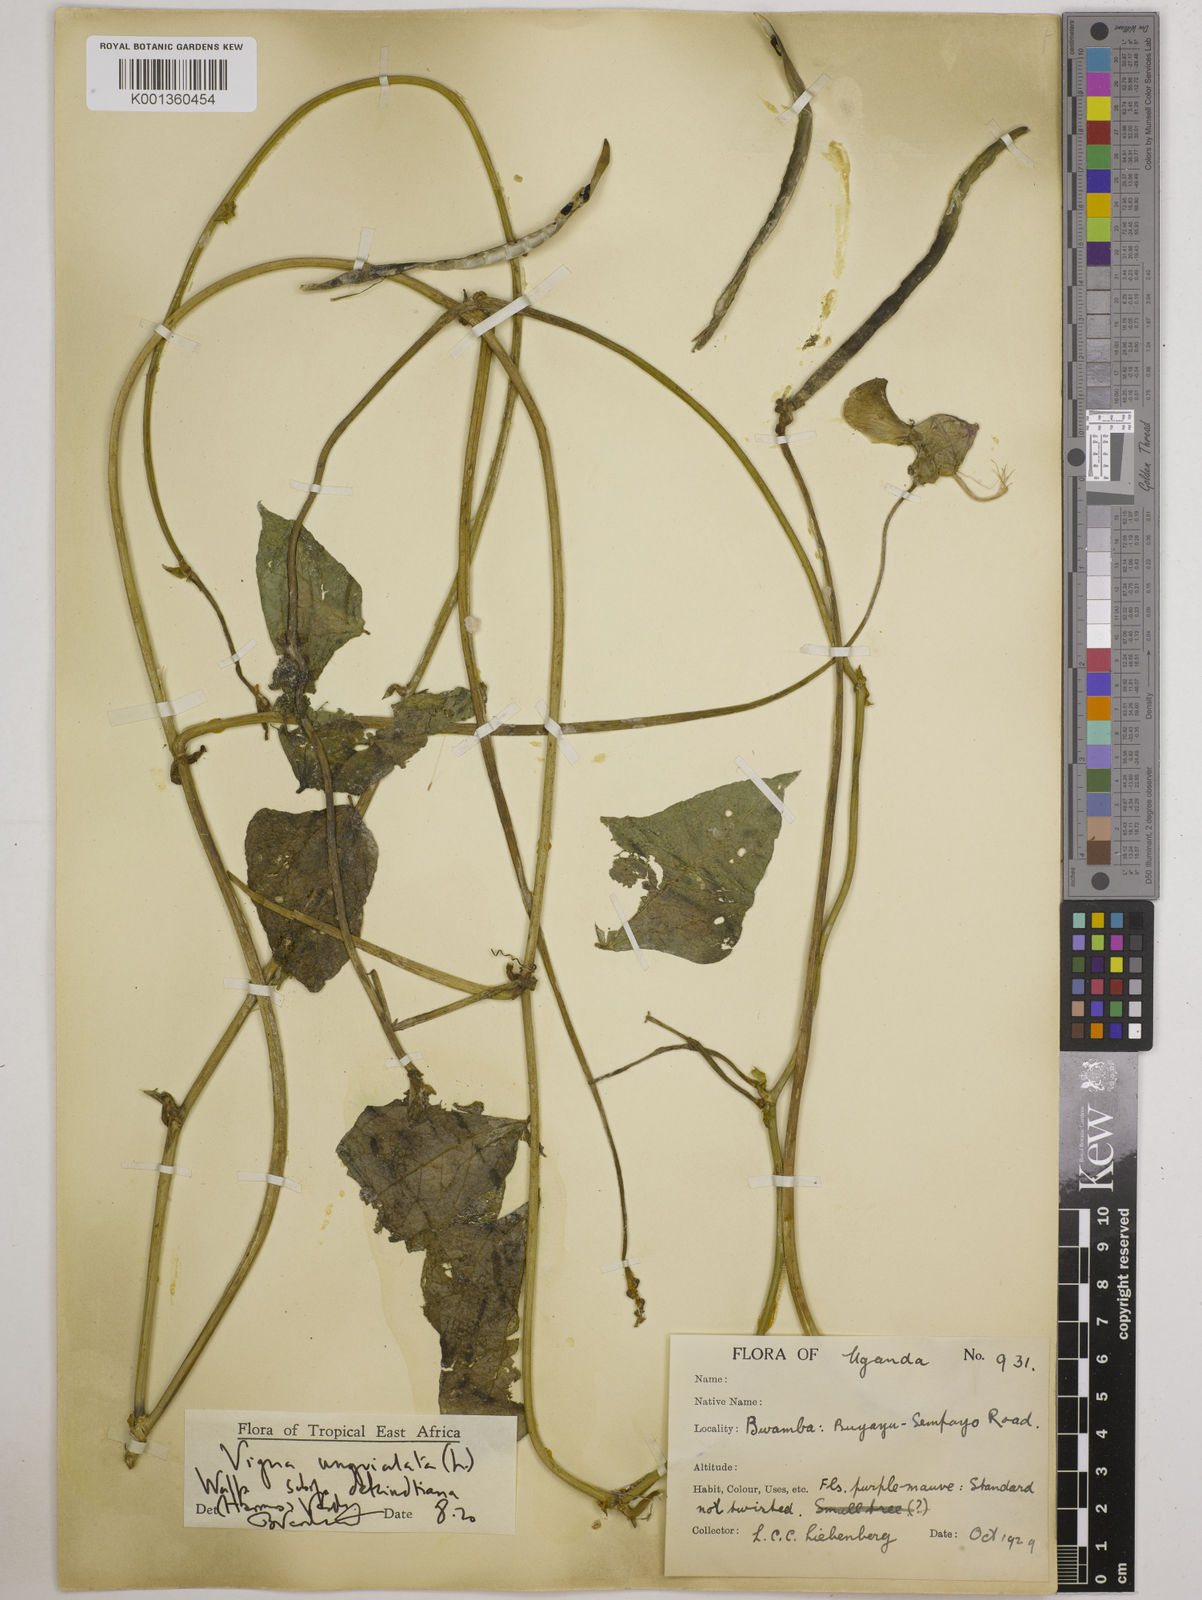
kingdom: Plantae
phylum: Tracheophyta
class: Magnoliopsida
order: Fabales
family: Fabaceae
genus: Vigna
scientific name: Vigna unguiculata
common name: Cowpea
